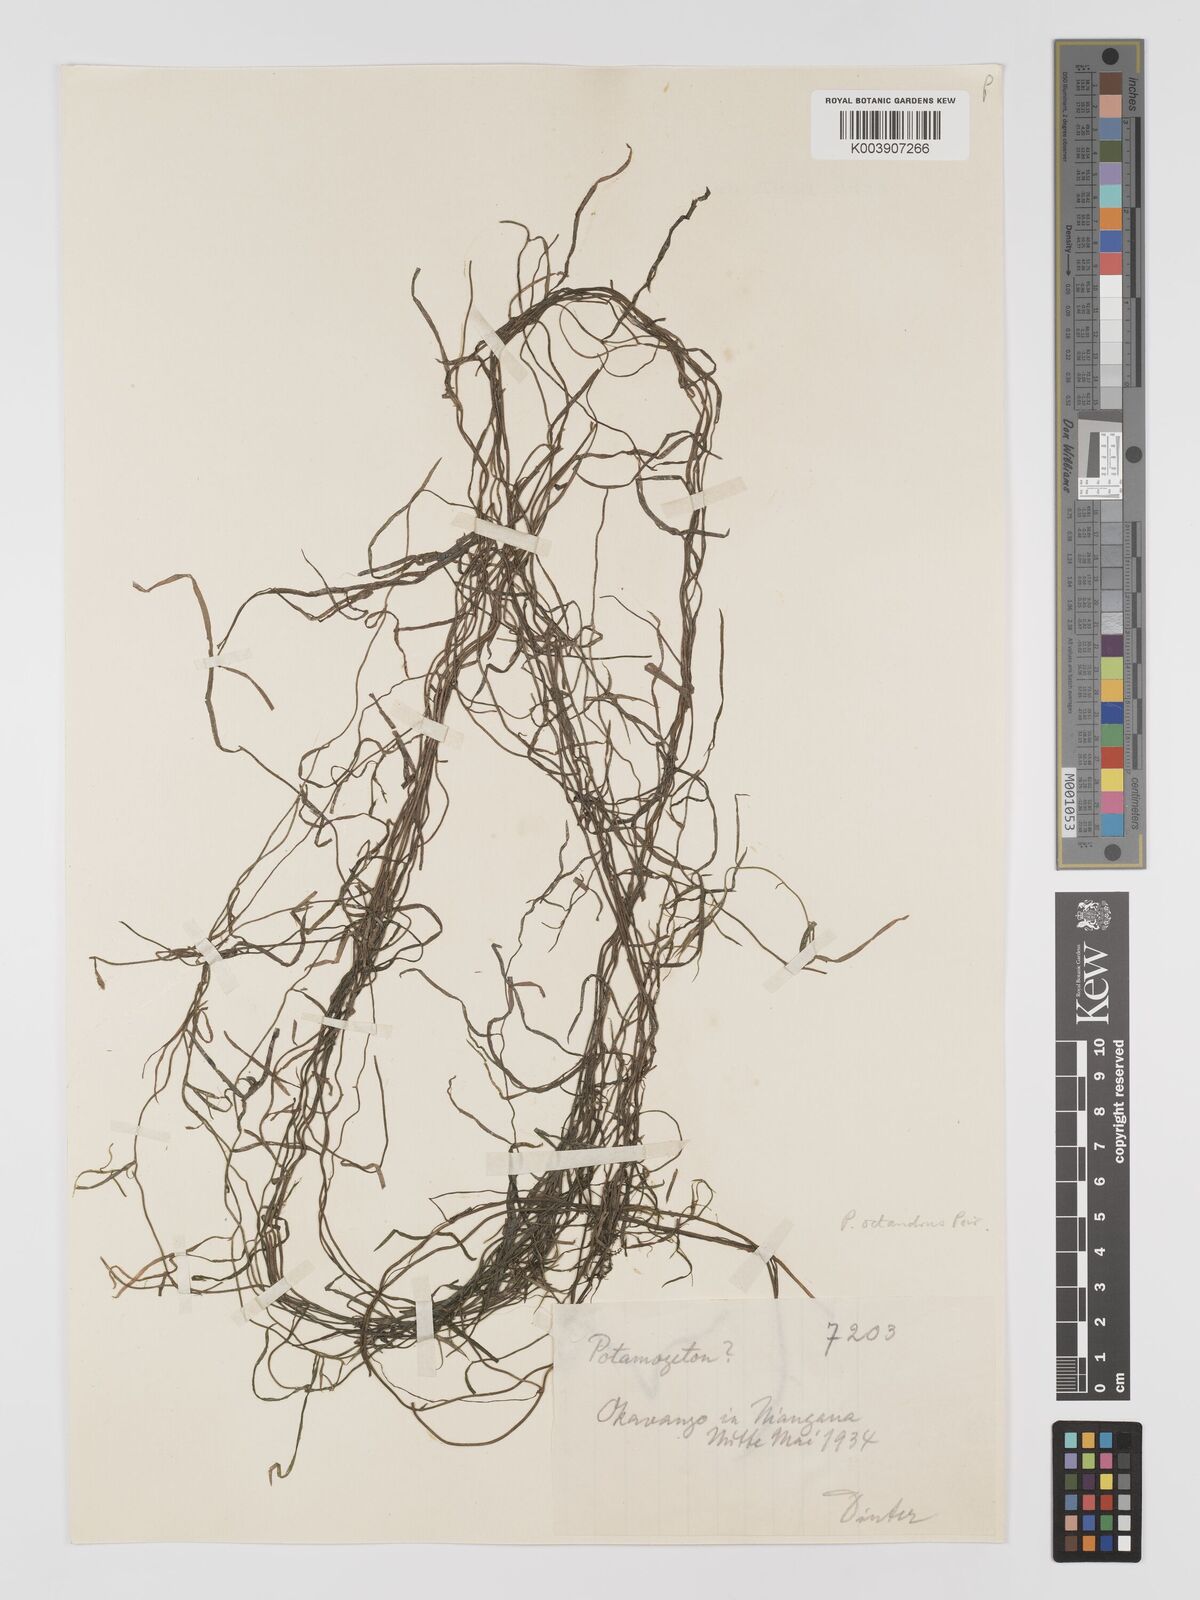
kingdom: Plantae
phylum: Tracheophyta
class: Liliopsida
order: Alismatales
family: Potamogetonaceae
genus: Potamogeton
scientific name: Potamogeton tenuicaulis
